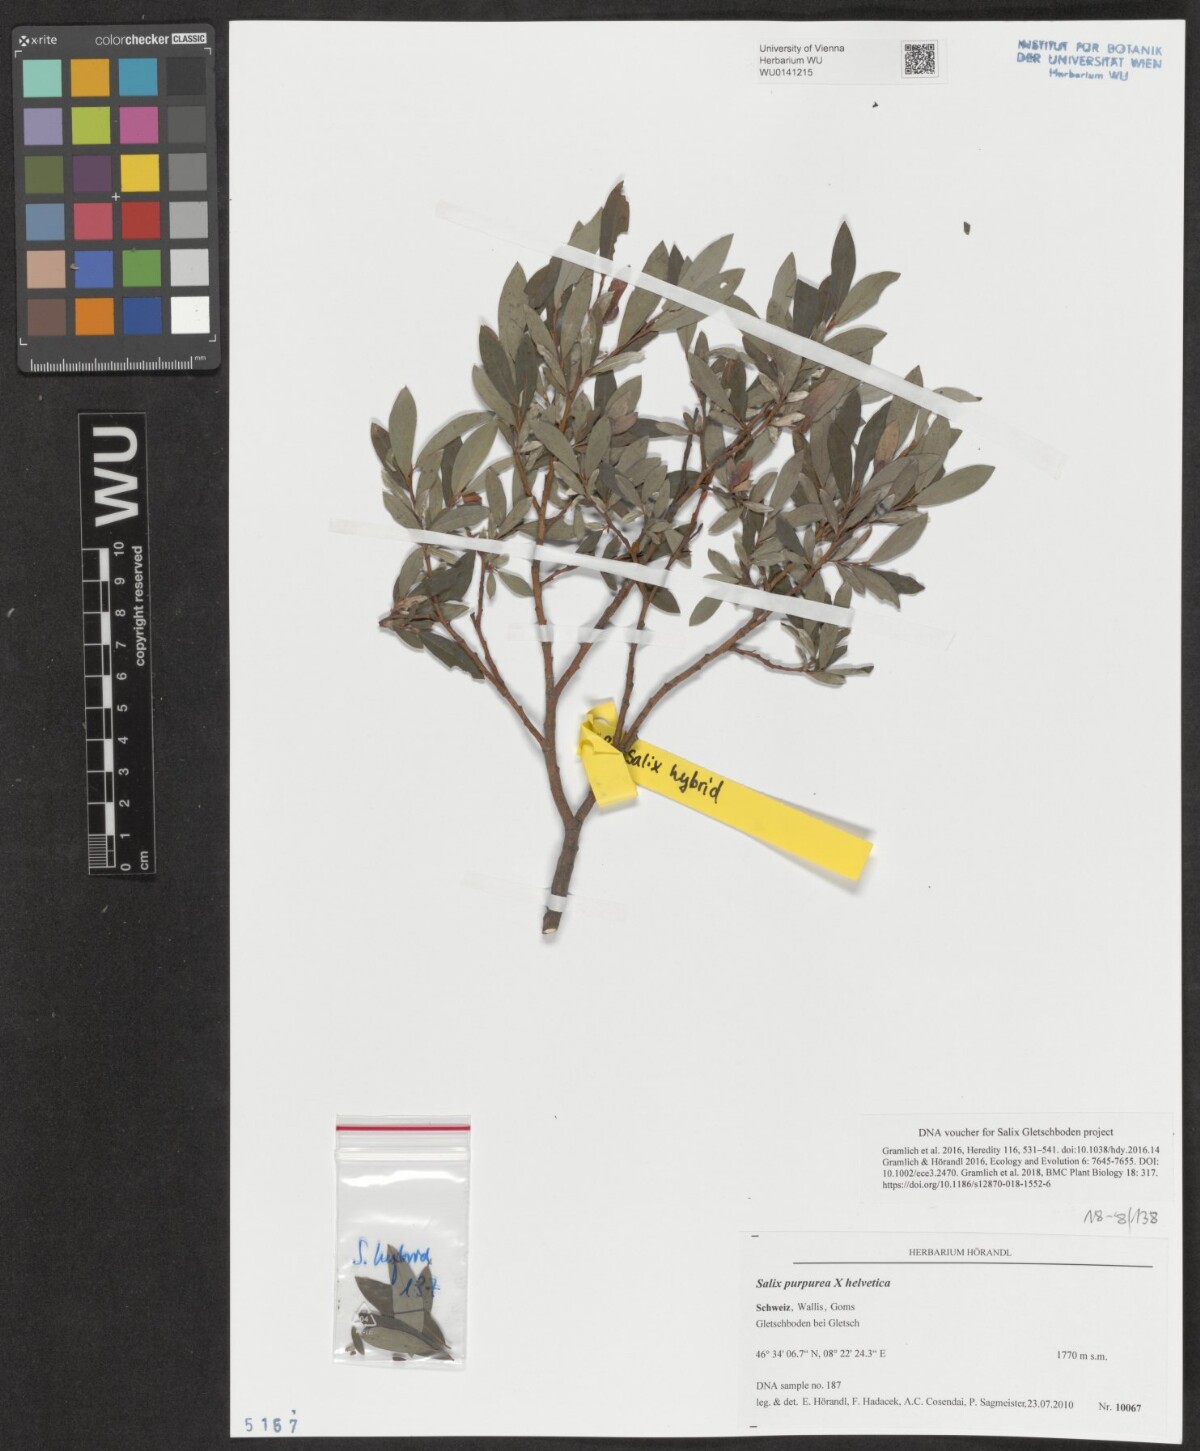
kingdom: Plantae
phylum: Tracheophyta
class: Magnoliopsida
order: Malpighiales
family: Salicaceae
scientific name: Salicaceae
